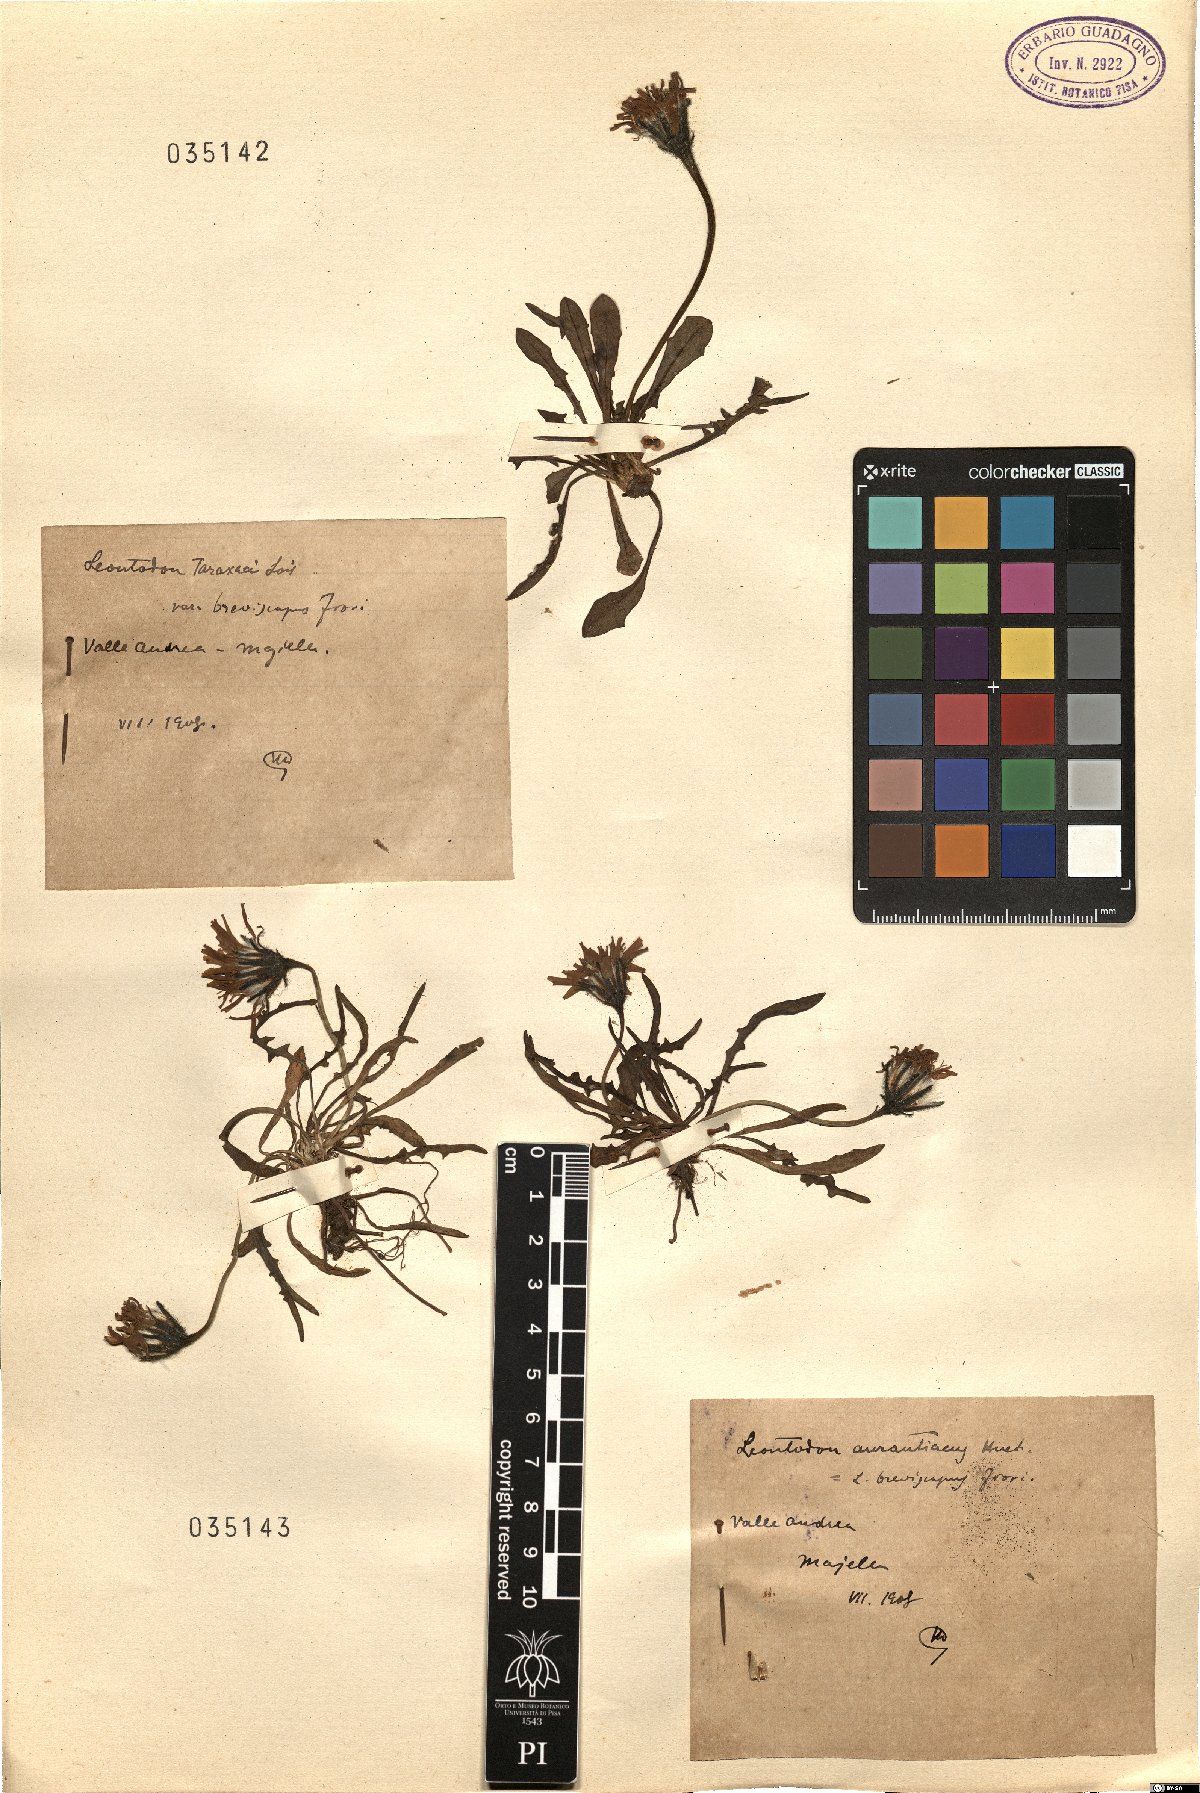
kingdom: Plantae
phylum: Tracheophyta
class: Magnoliopsida
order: Asterales
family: Asteraceae
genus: Scorzoneroides
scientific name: Scorzoneroides hispidula
